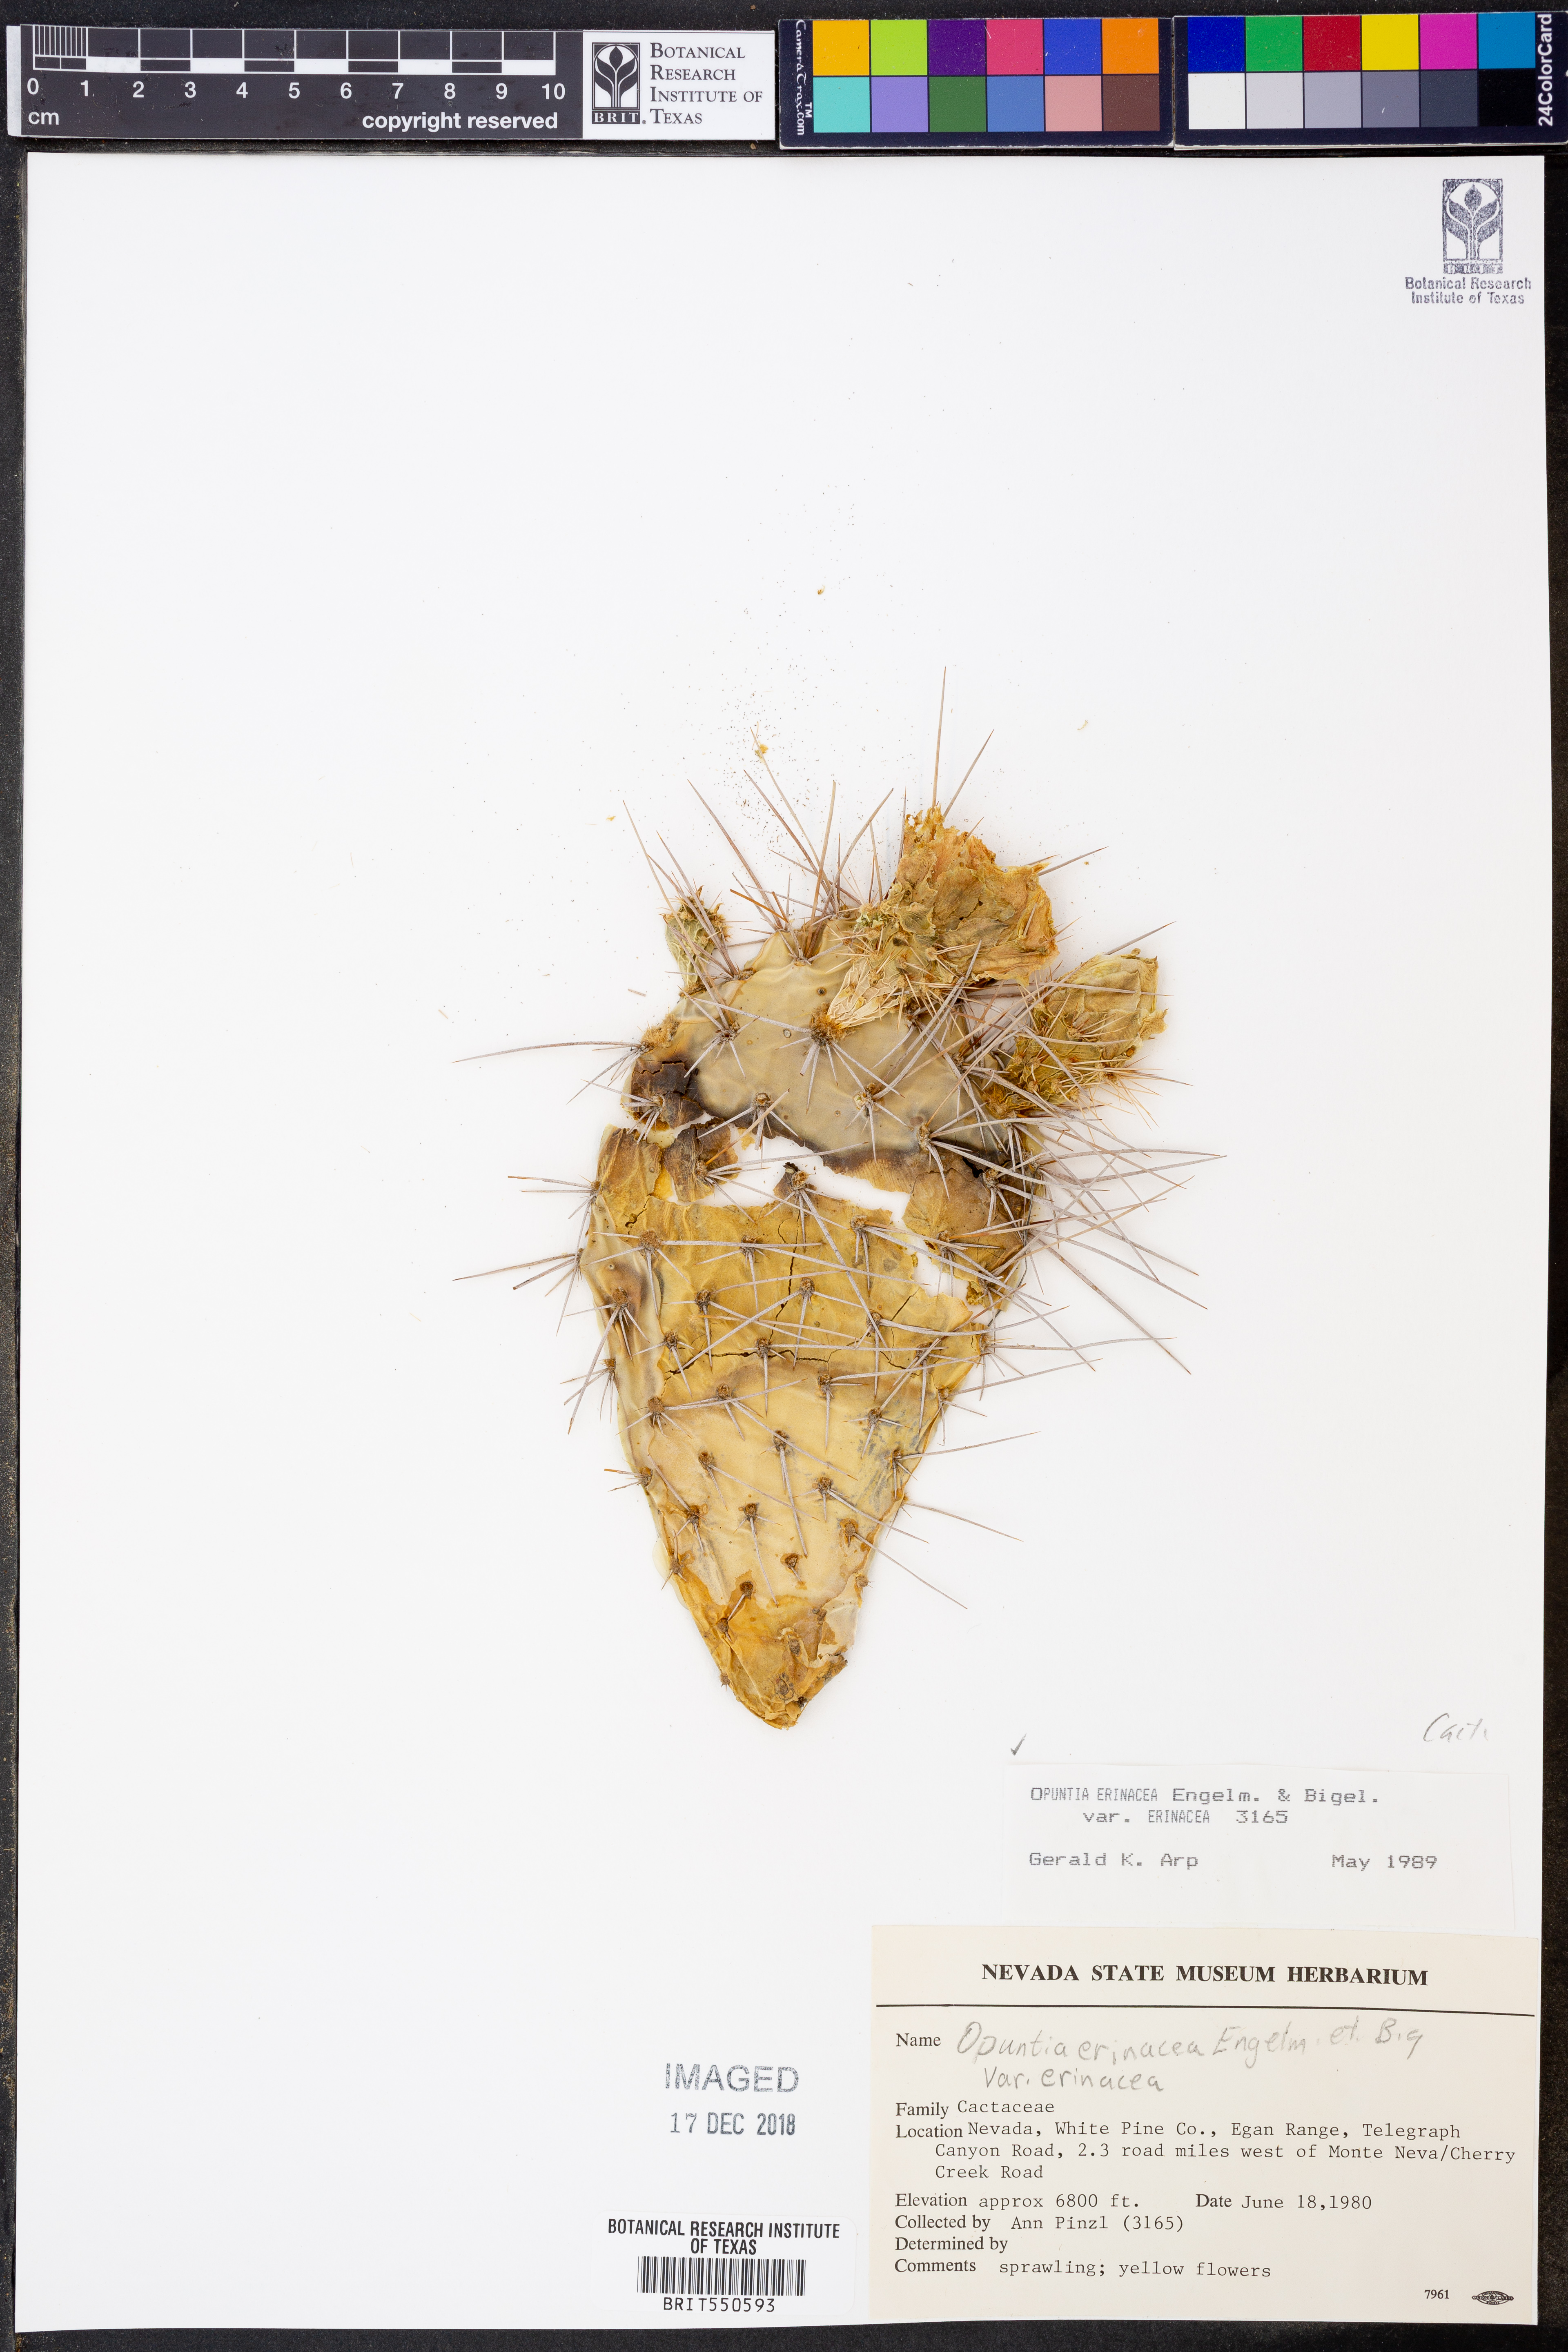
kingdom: Plantae
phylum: Tracheophyta
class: Magnoliopsida
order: Caryophyllales
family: Cactaceae
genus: Opuntia
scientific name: Opuntia polyacantha
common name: Plains prickly-pear
